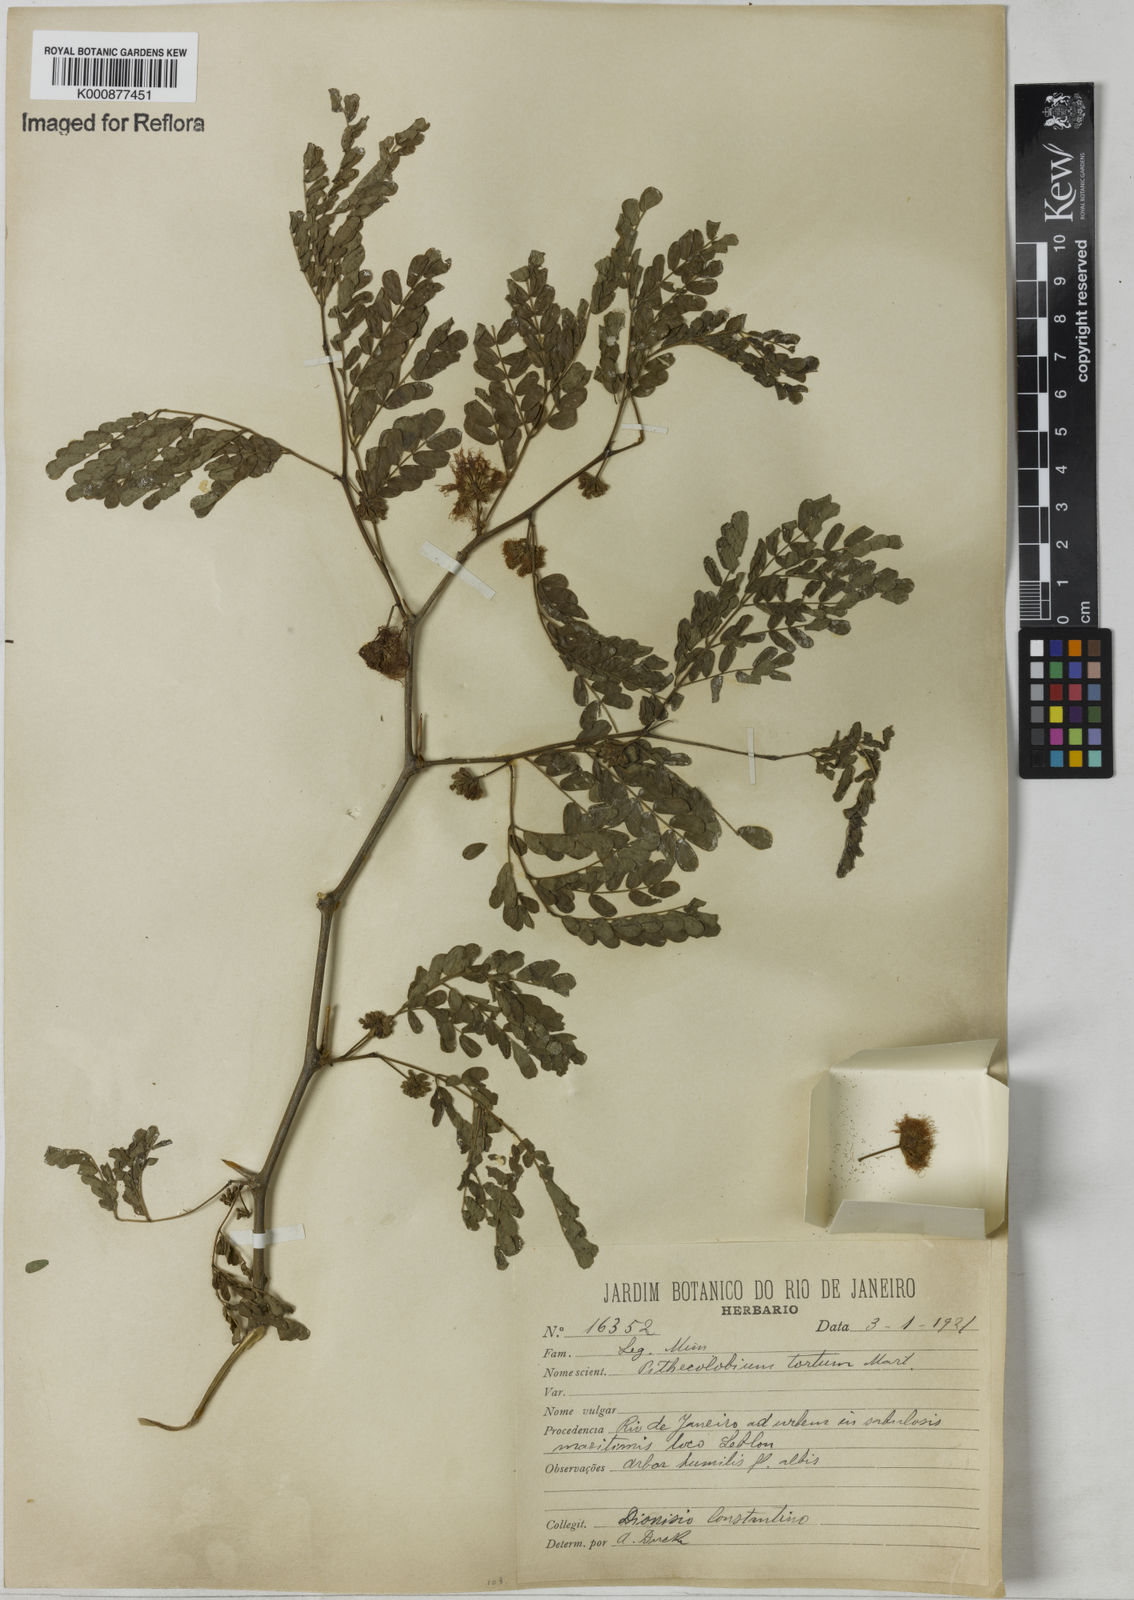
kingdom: Plantae
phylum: Tracheophyta
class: Magnoliopsida
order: Fabales
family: Fabaceae
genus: Chloroleucon
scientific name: Chloroleucon tortum
